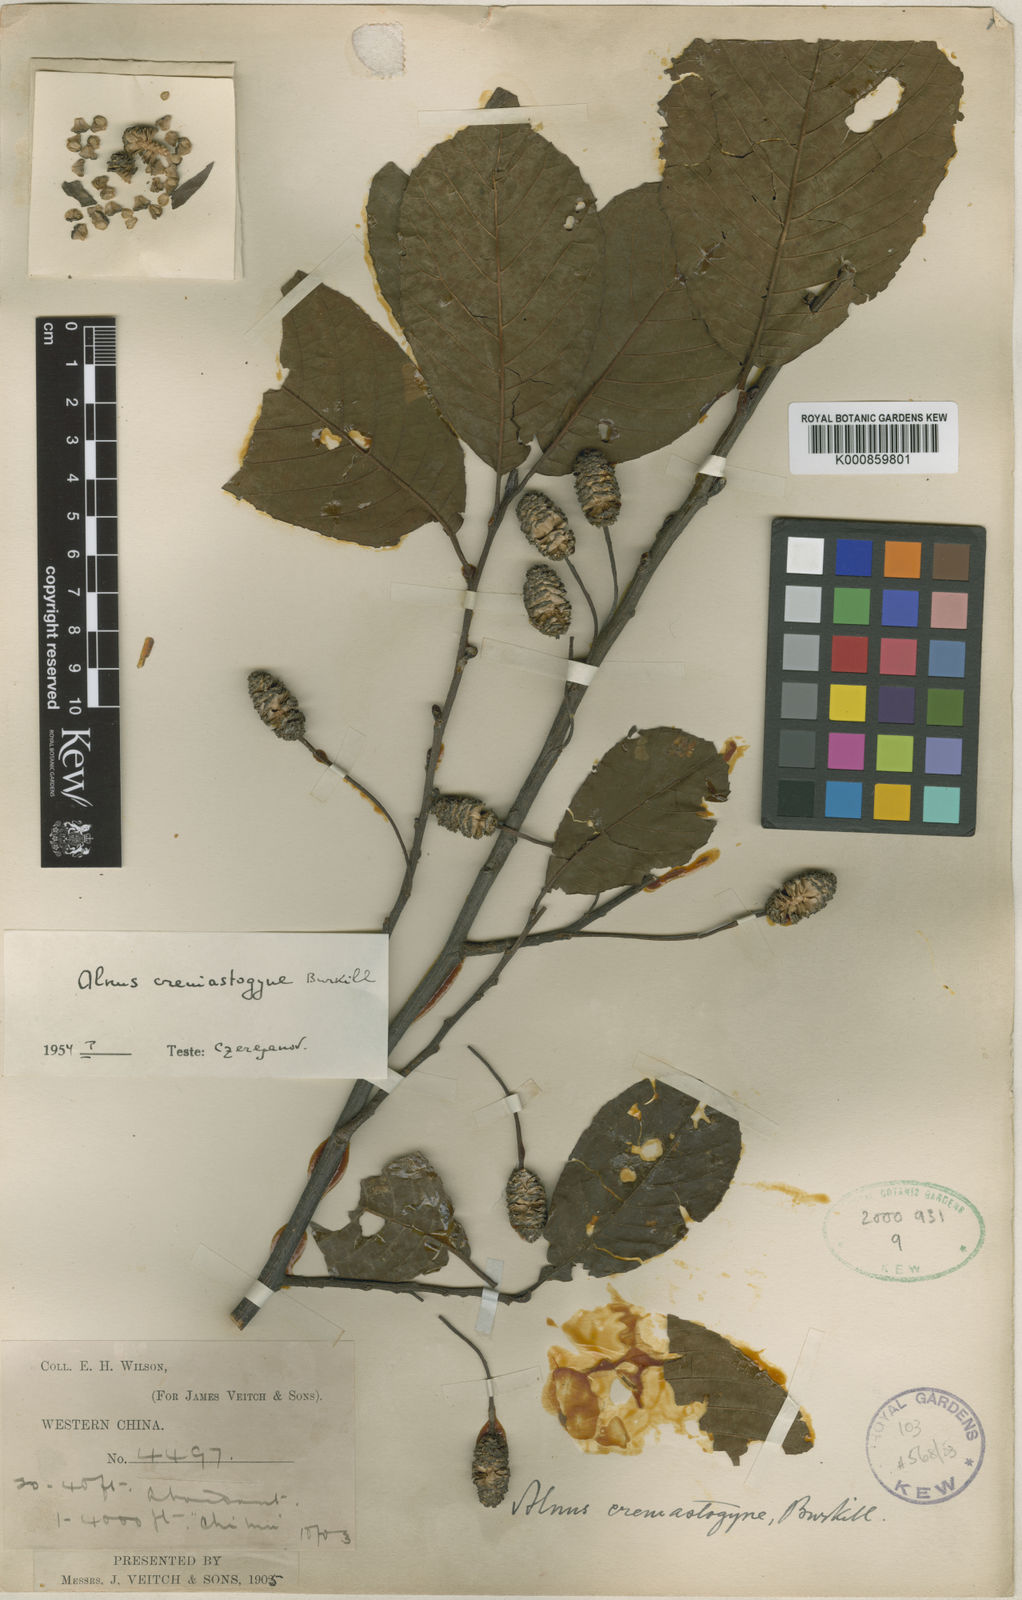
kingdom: Plantae
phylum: Tracheophyta
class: Magnoliopsida
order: Fagales
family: Betulaceae
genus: Alnus
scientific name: Alnus cremastogyne
